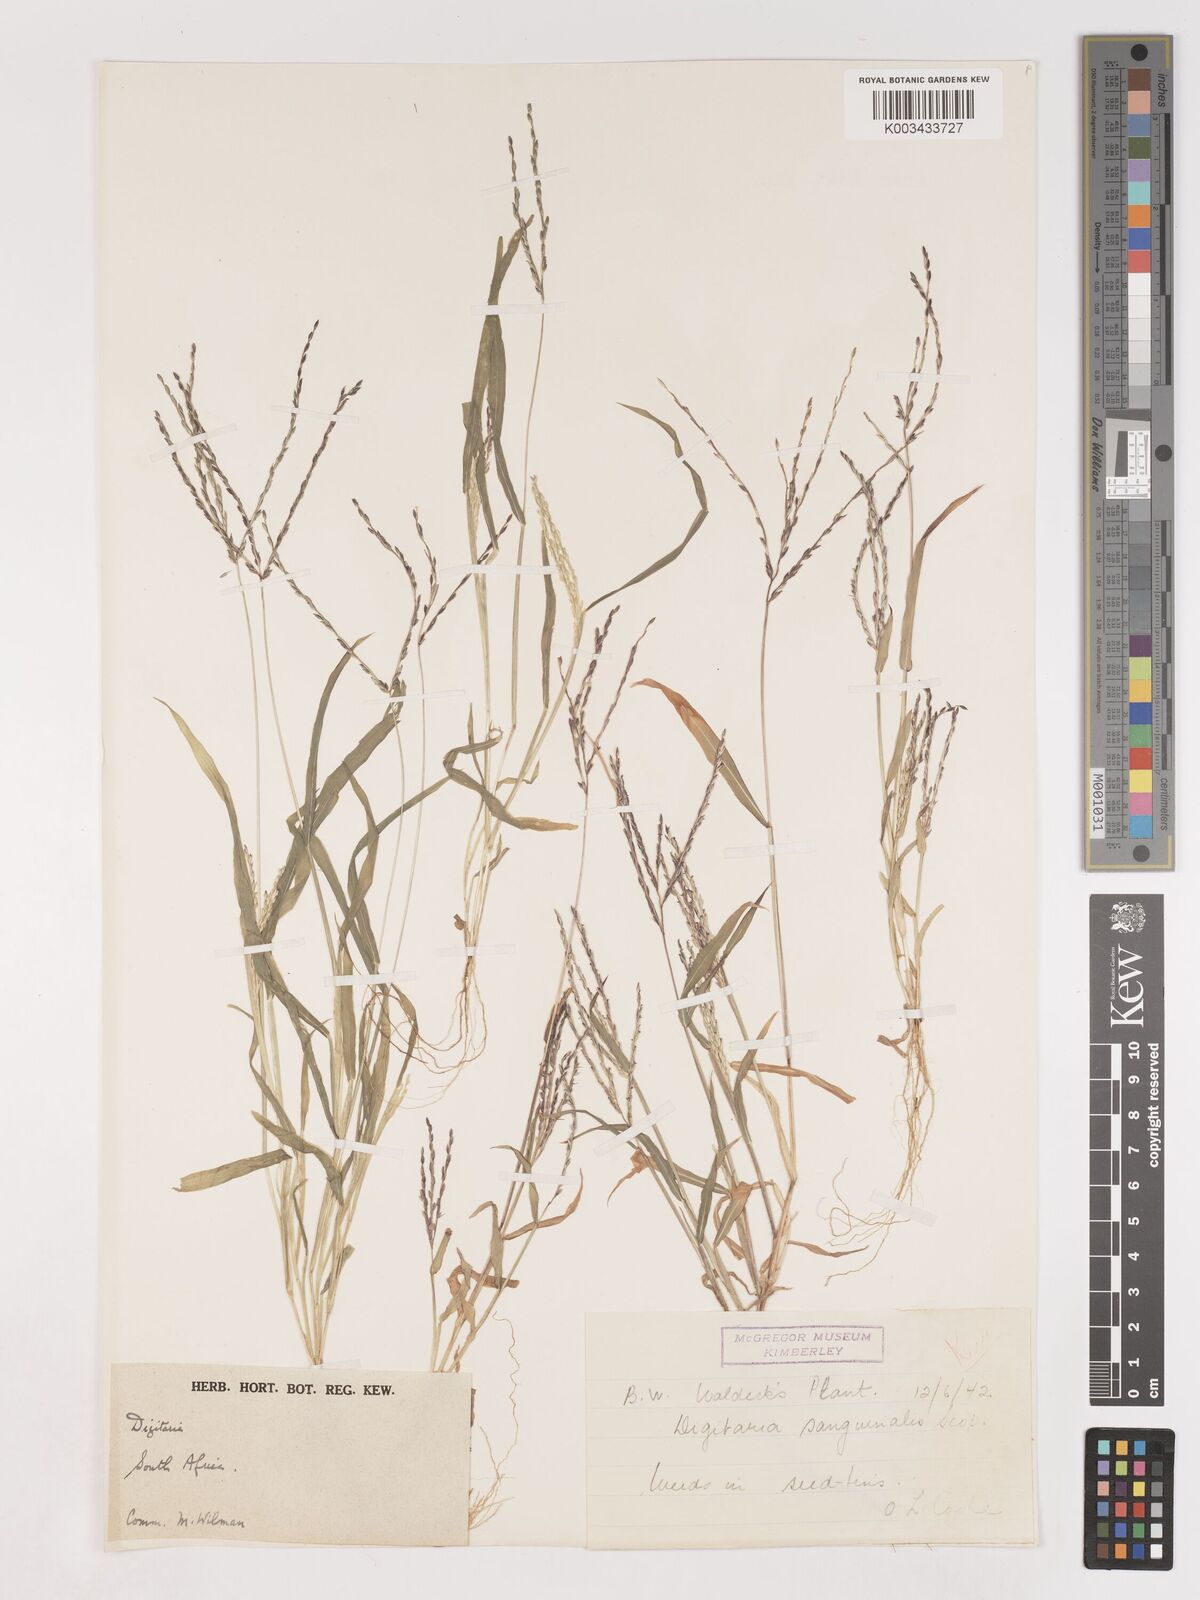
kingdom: Plantae
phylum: Tracheophyta
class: Liliopsida
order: Poales
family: Poaceae
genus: Digitaria
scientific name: Digitaria sanguinalis
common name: Hairy crabgrass
